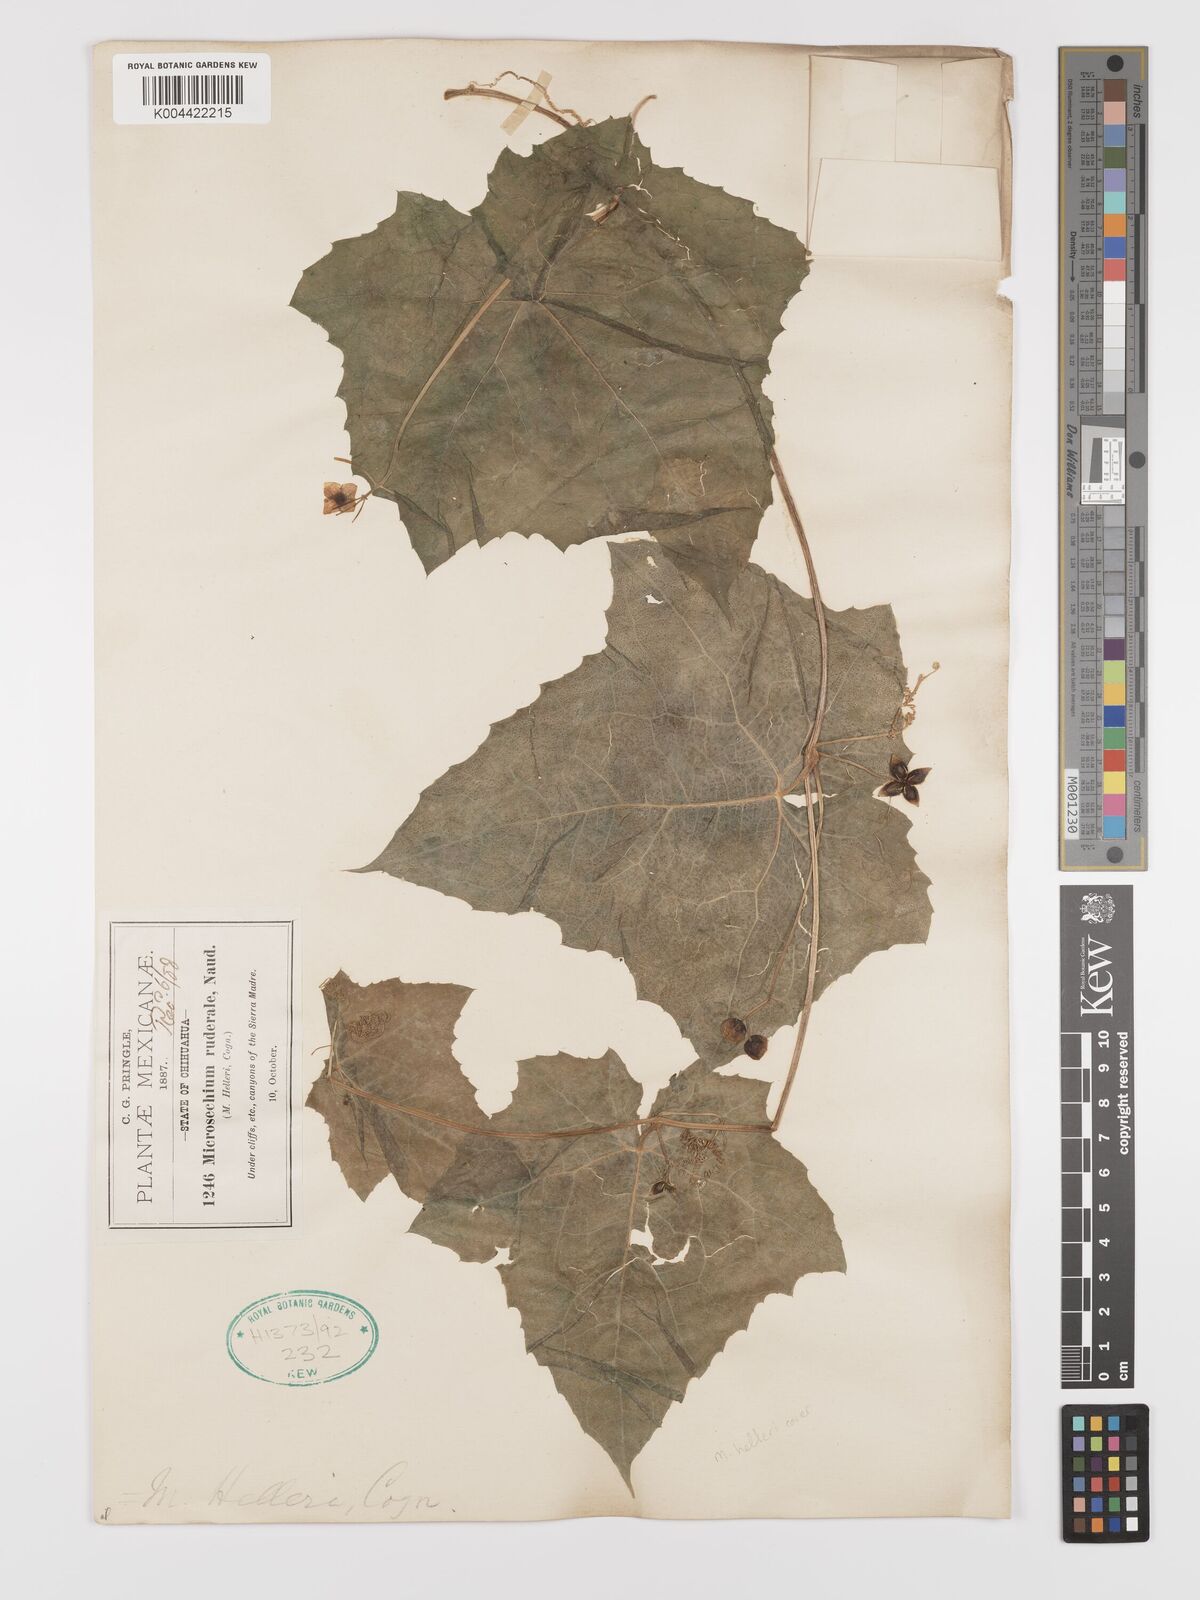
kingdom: Plantae
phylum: Tracheophyta
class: Magnoliopsida
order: Cucurbitales
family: Cucurbitaceae
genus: Microsechium
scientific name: Microsechium palmatum
